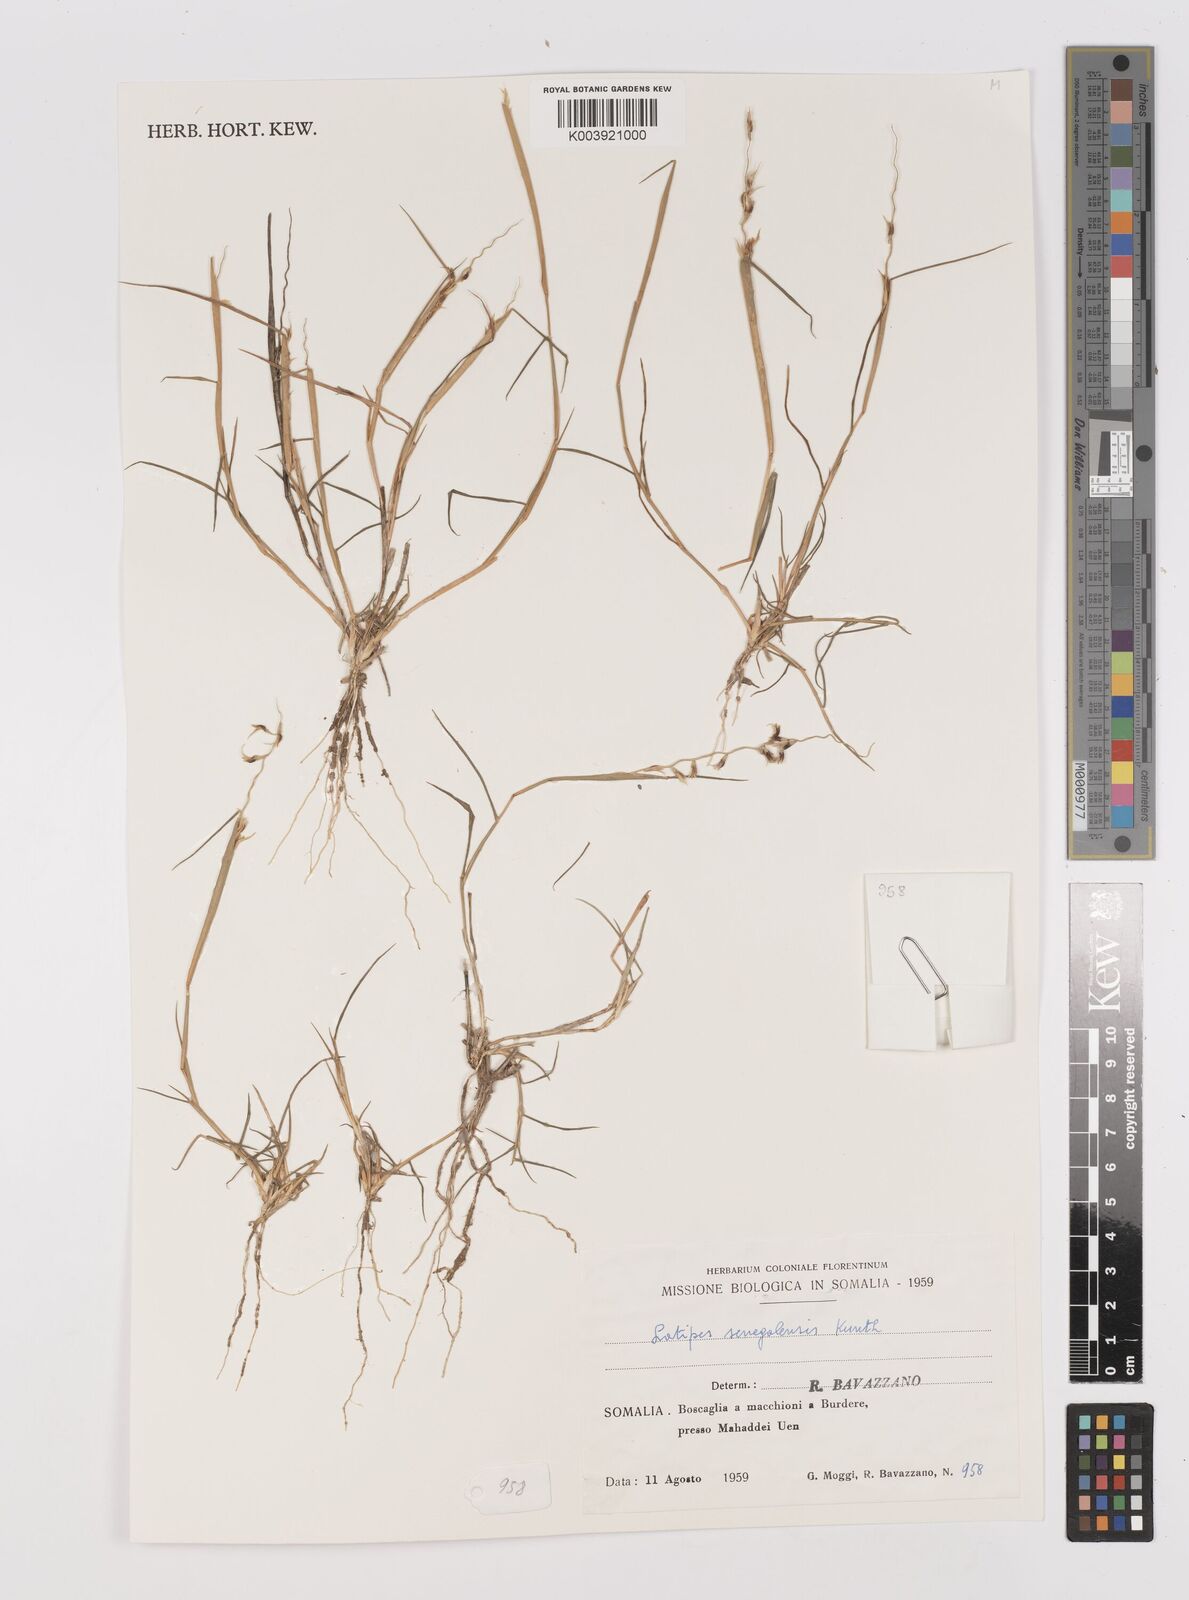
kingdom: Plantae
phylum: Tracheophyta
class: Liliopsida
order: Poales
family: Poaceae
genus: Leptothrium
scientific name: Leptothrium senegalense
